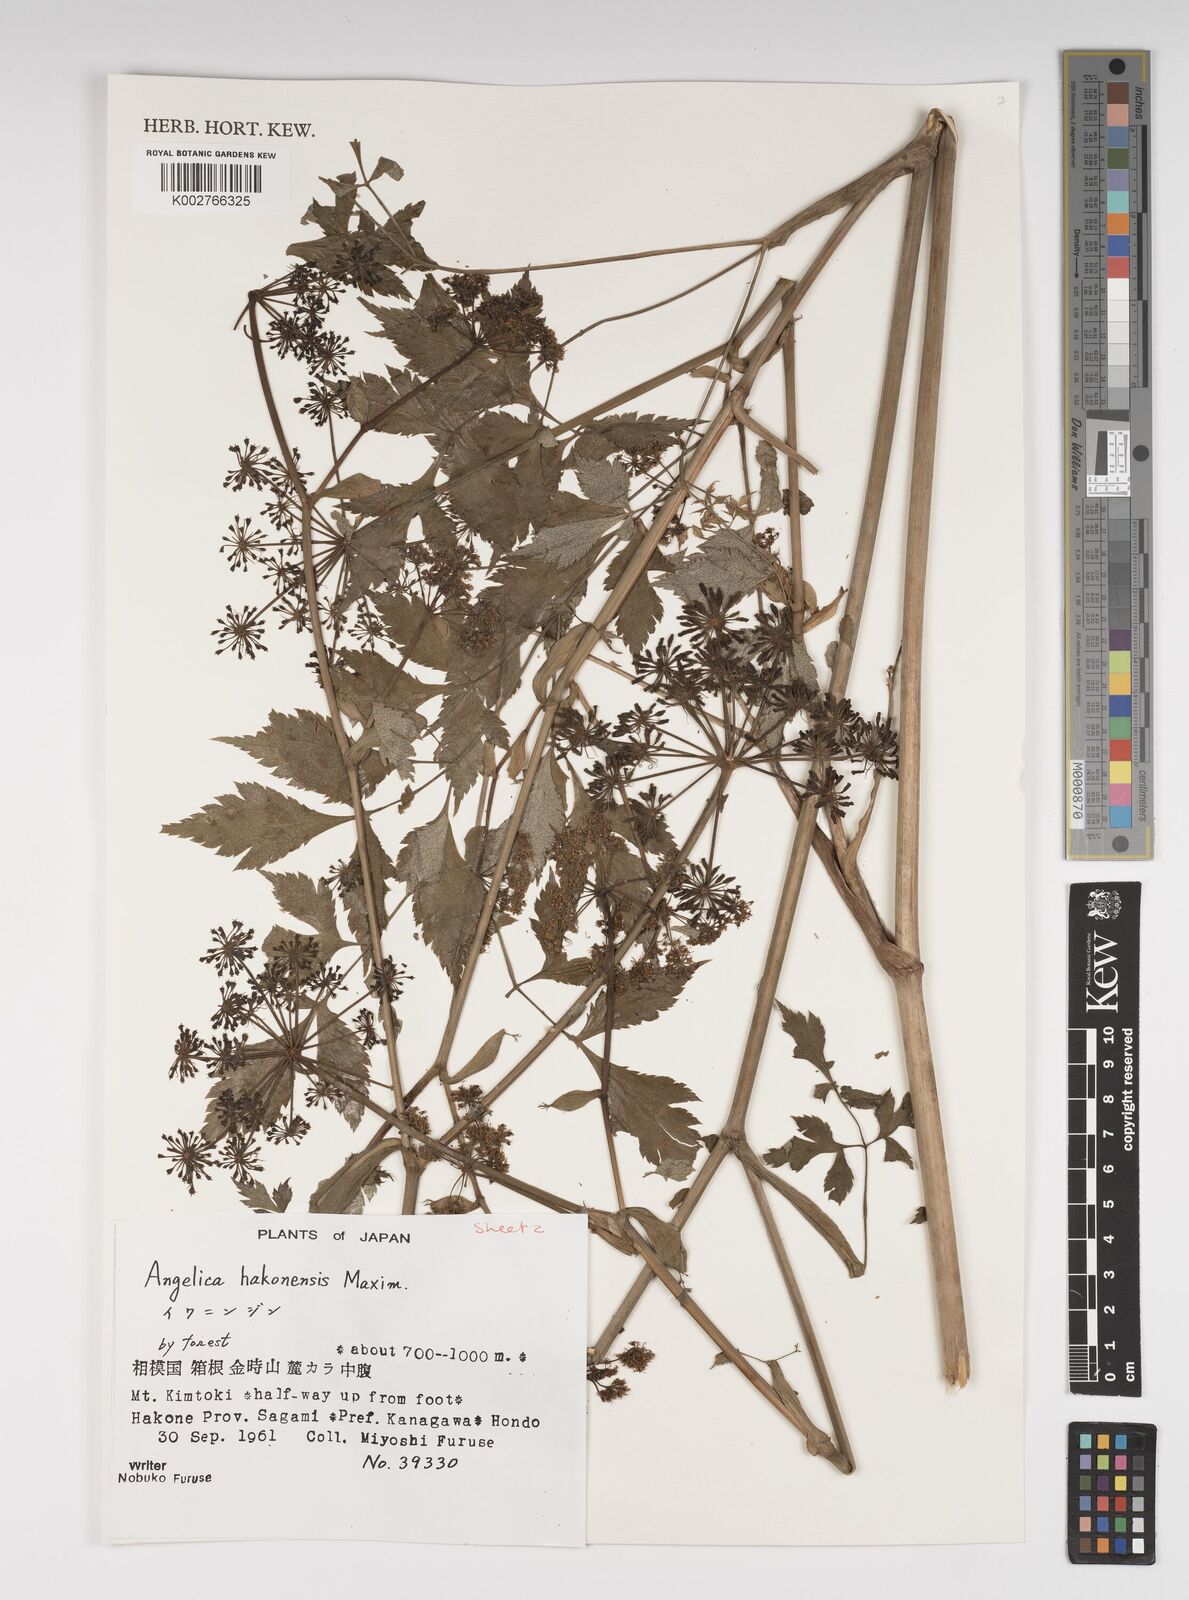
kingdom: Plantae
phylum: Tracheophyta
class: Magnoliopsida
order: Apiales
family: Apiaceae
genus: Angelica
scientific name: Angelica hakonensis
